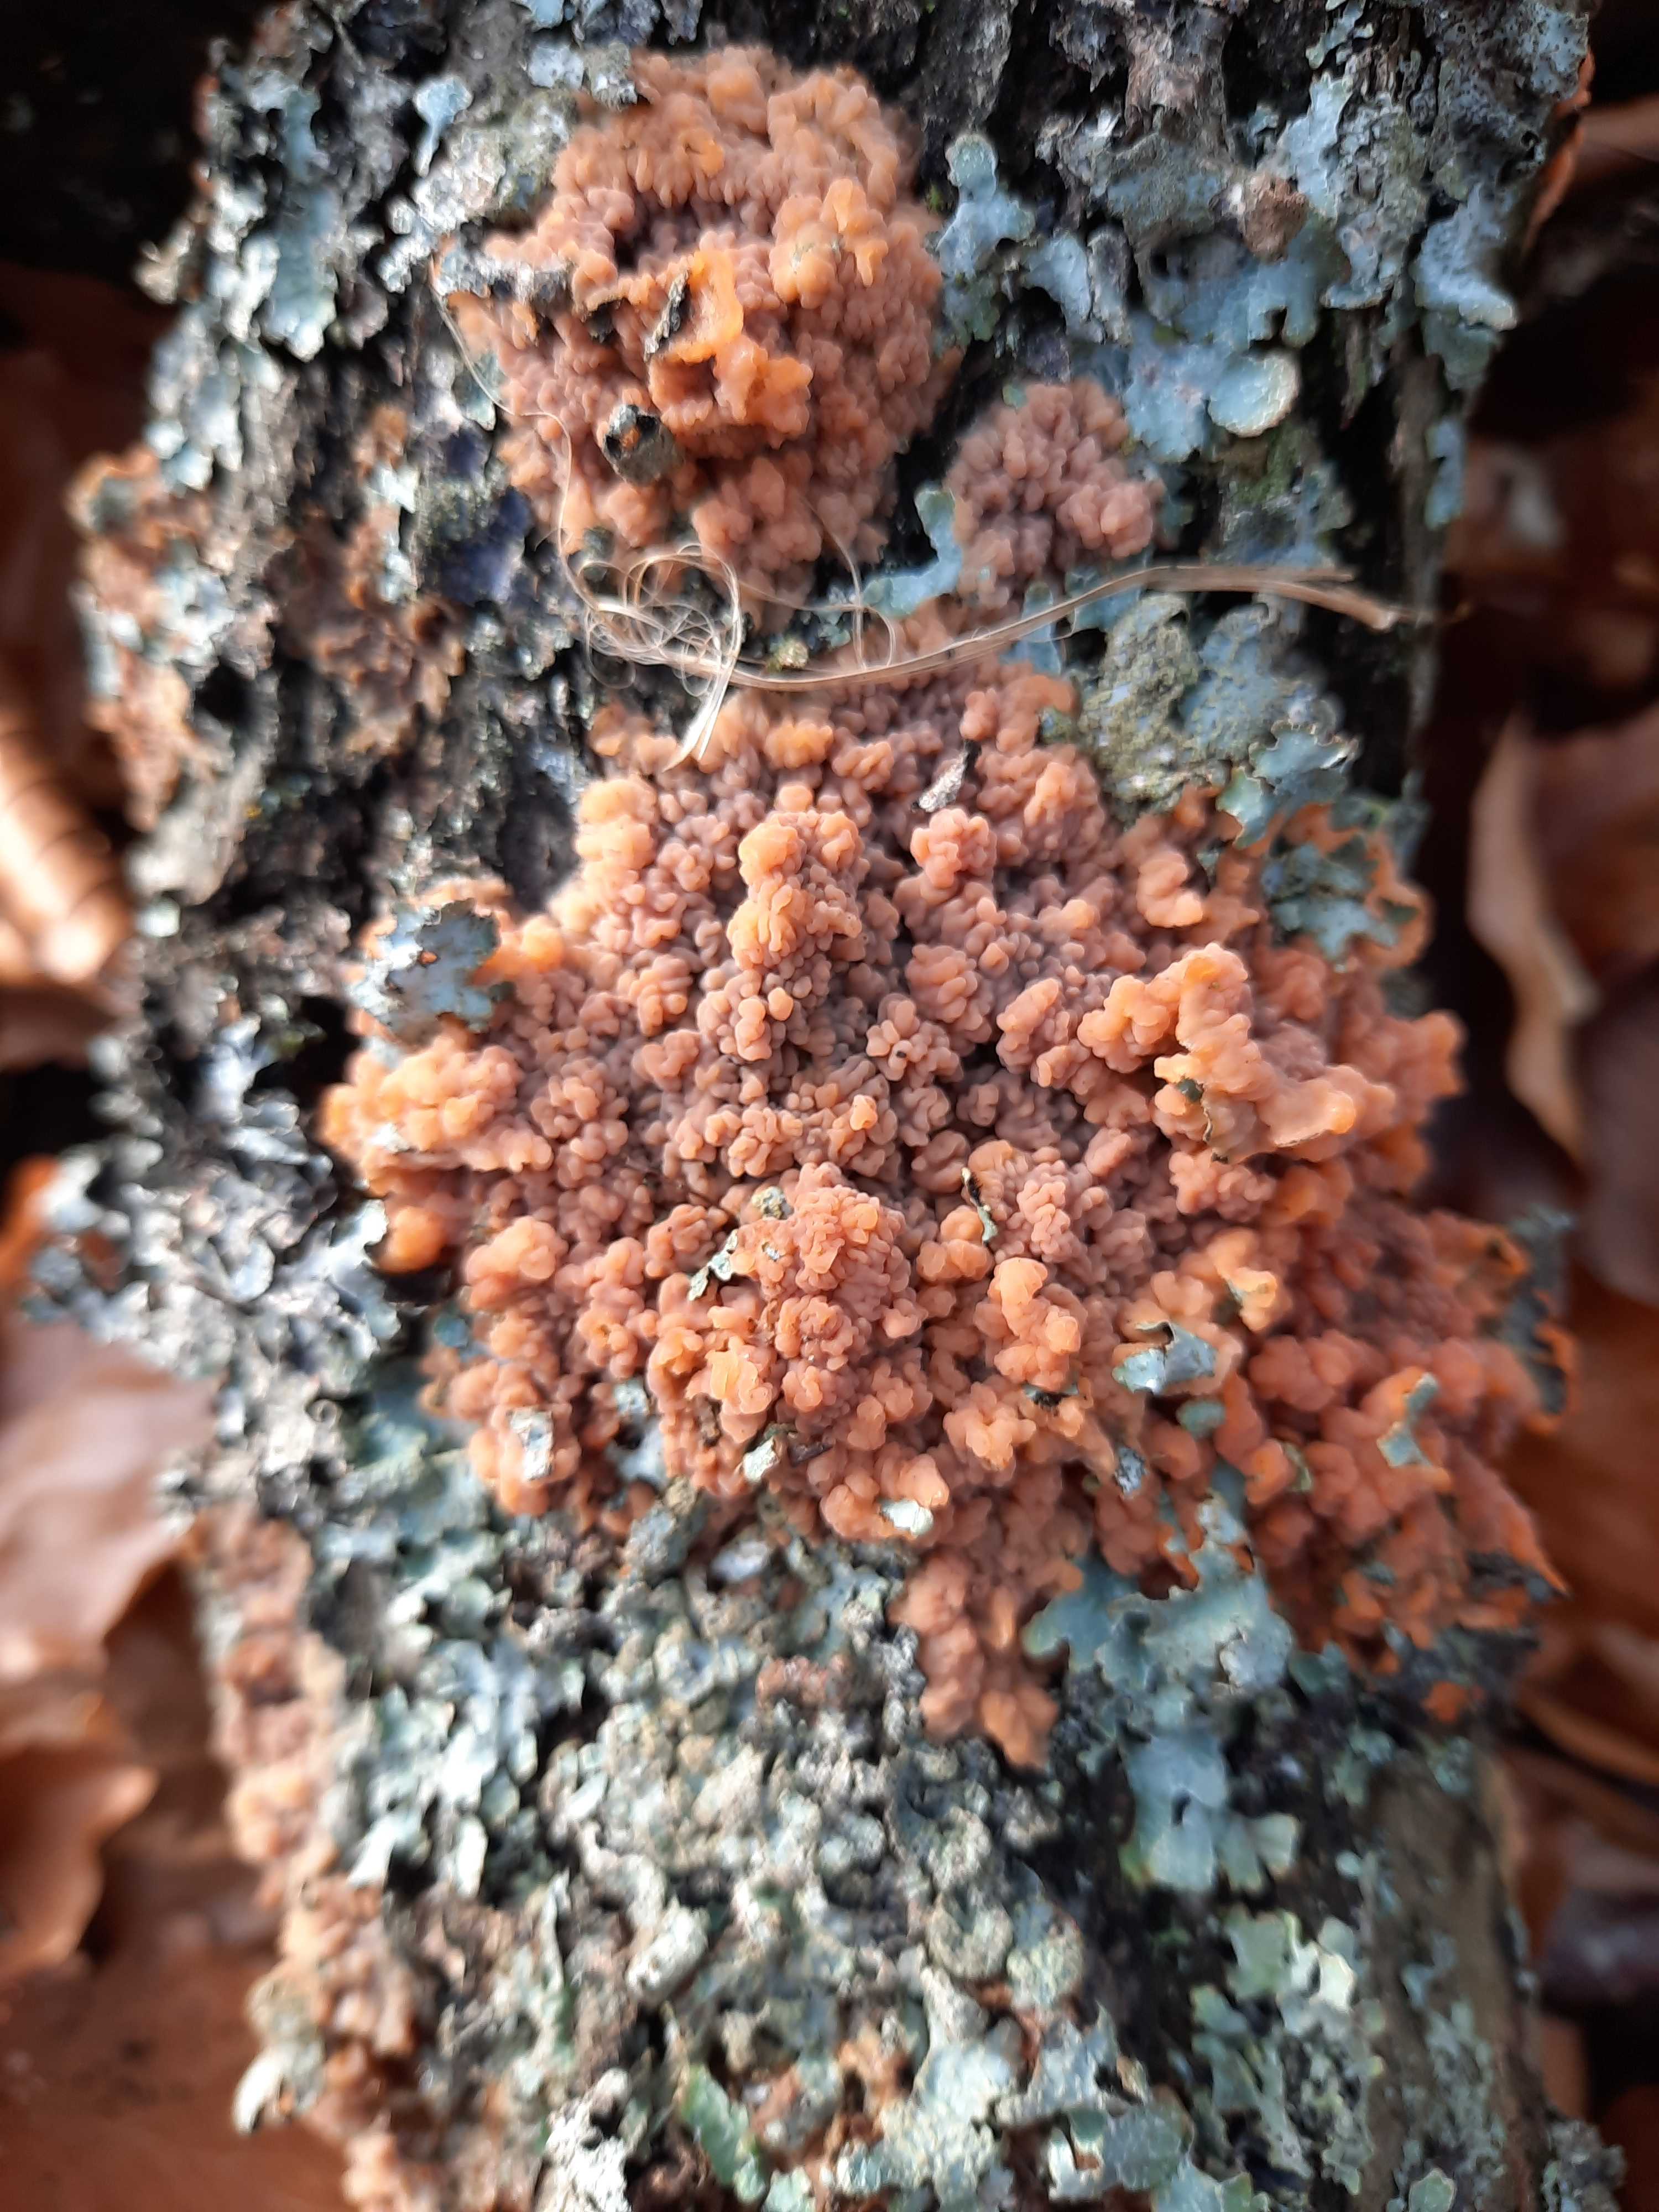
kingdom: Fungi
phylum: Basidiomycota
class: Agaricomycetes
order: Polyporales
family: Meruliaceae
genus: Phlebia
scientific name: Phlebia
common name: åresvamp
